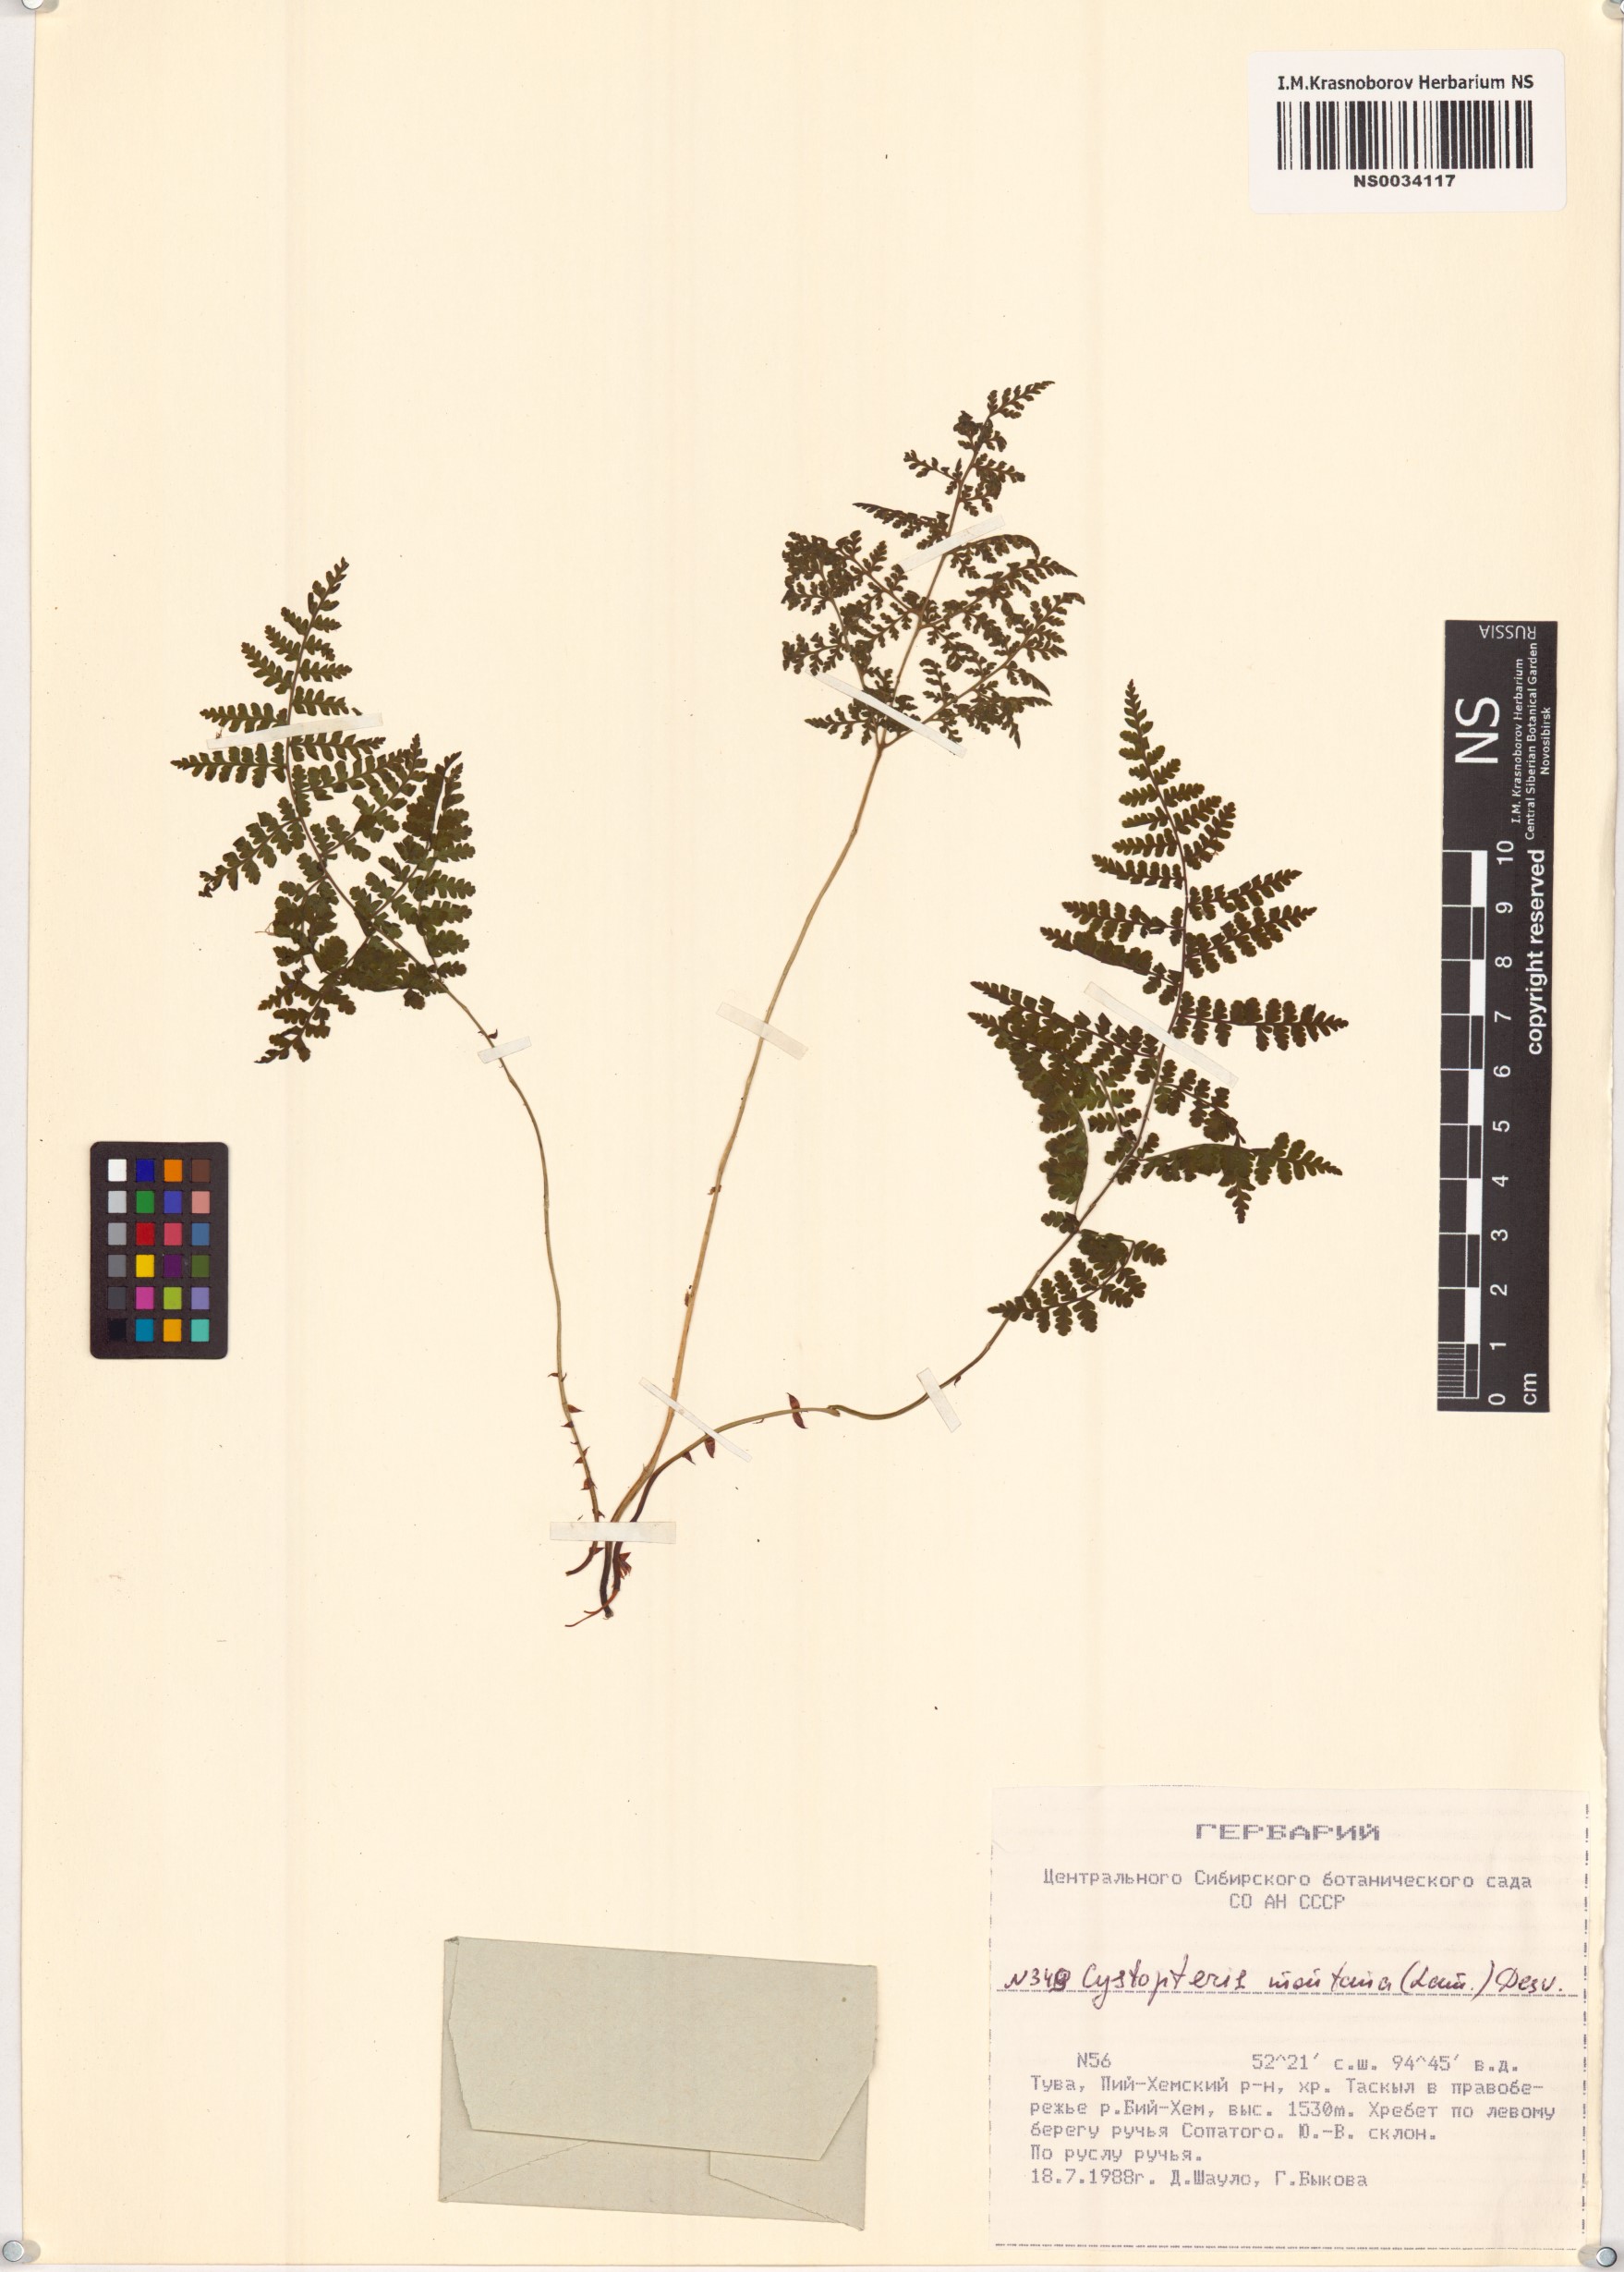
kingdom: Plantae
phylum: Tracheophyta
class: Polypodiopsida
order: Polypodiales
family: Cystopteridaceae
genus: Cystopteris
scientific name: Cystopteris montana
